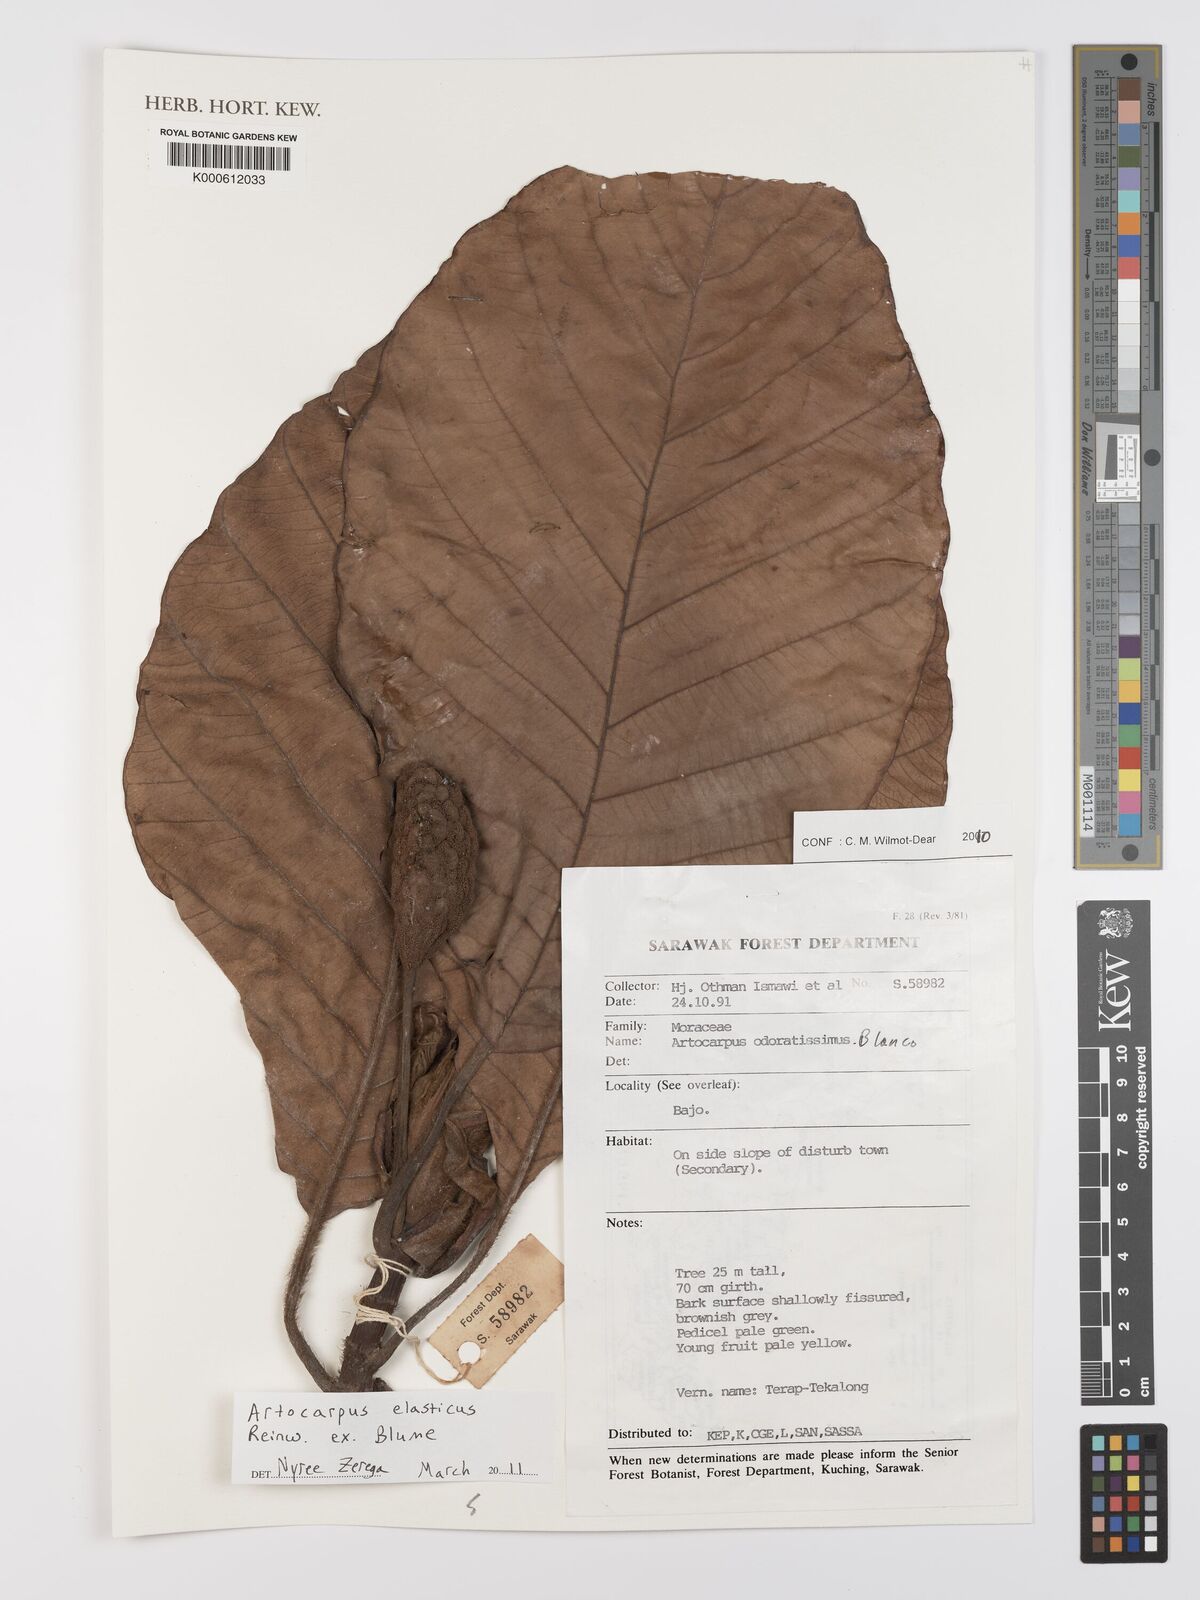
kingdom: Plantae
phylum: Tracheophyta
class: Magnoliopsida
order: Rosales
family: Moraceae
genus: Artocarpus
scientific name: Artocarpus elasticus
